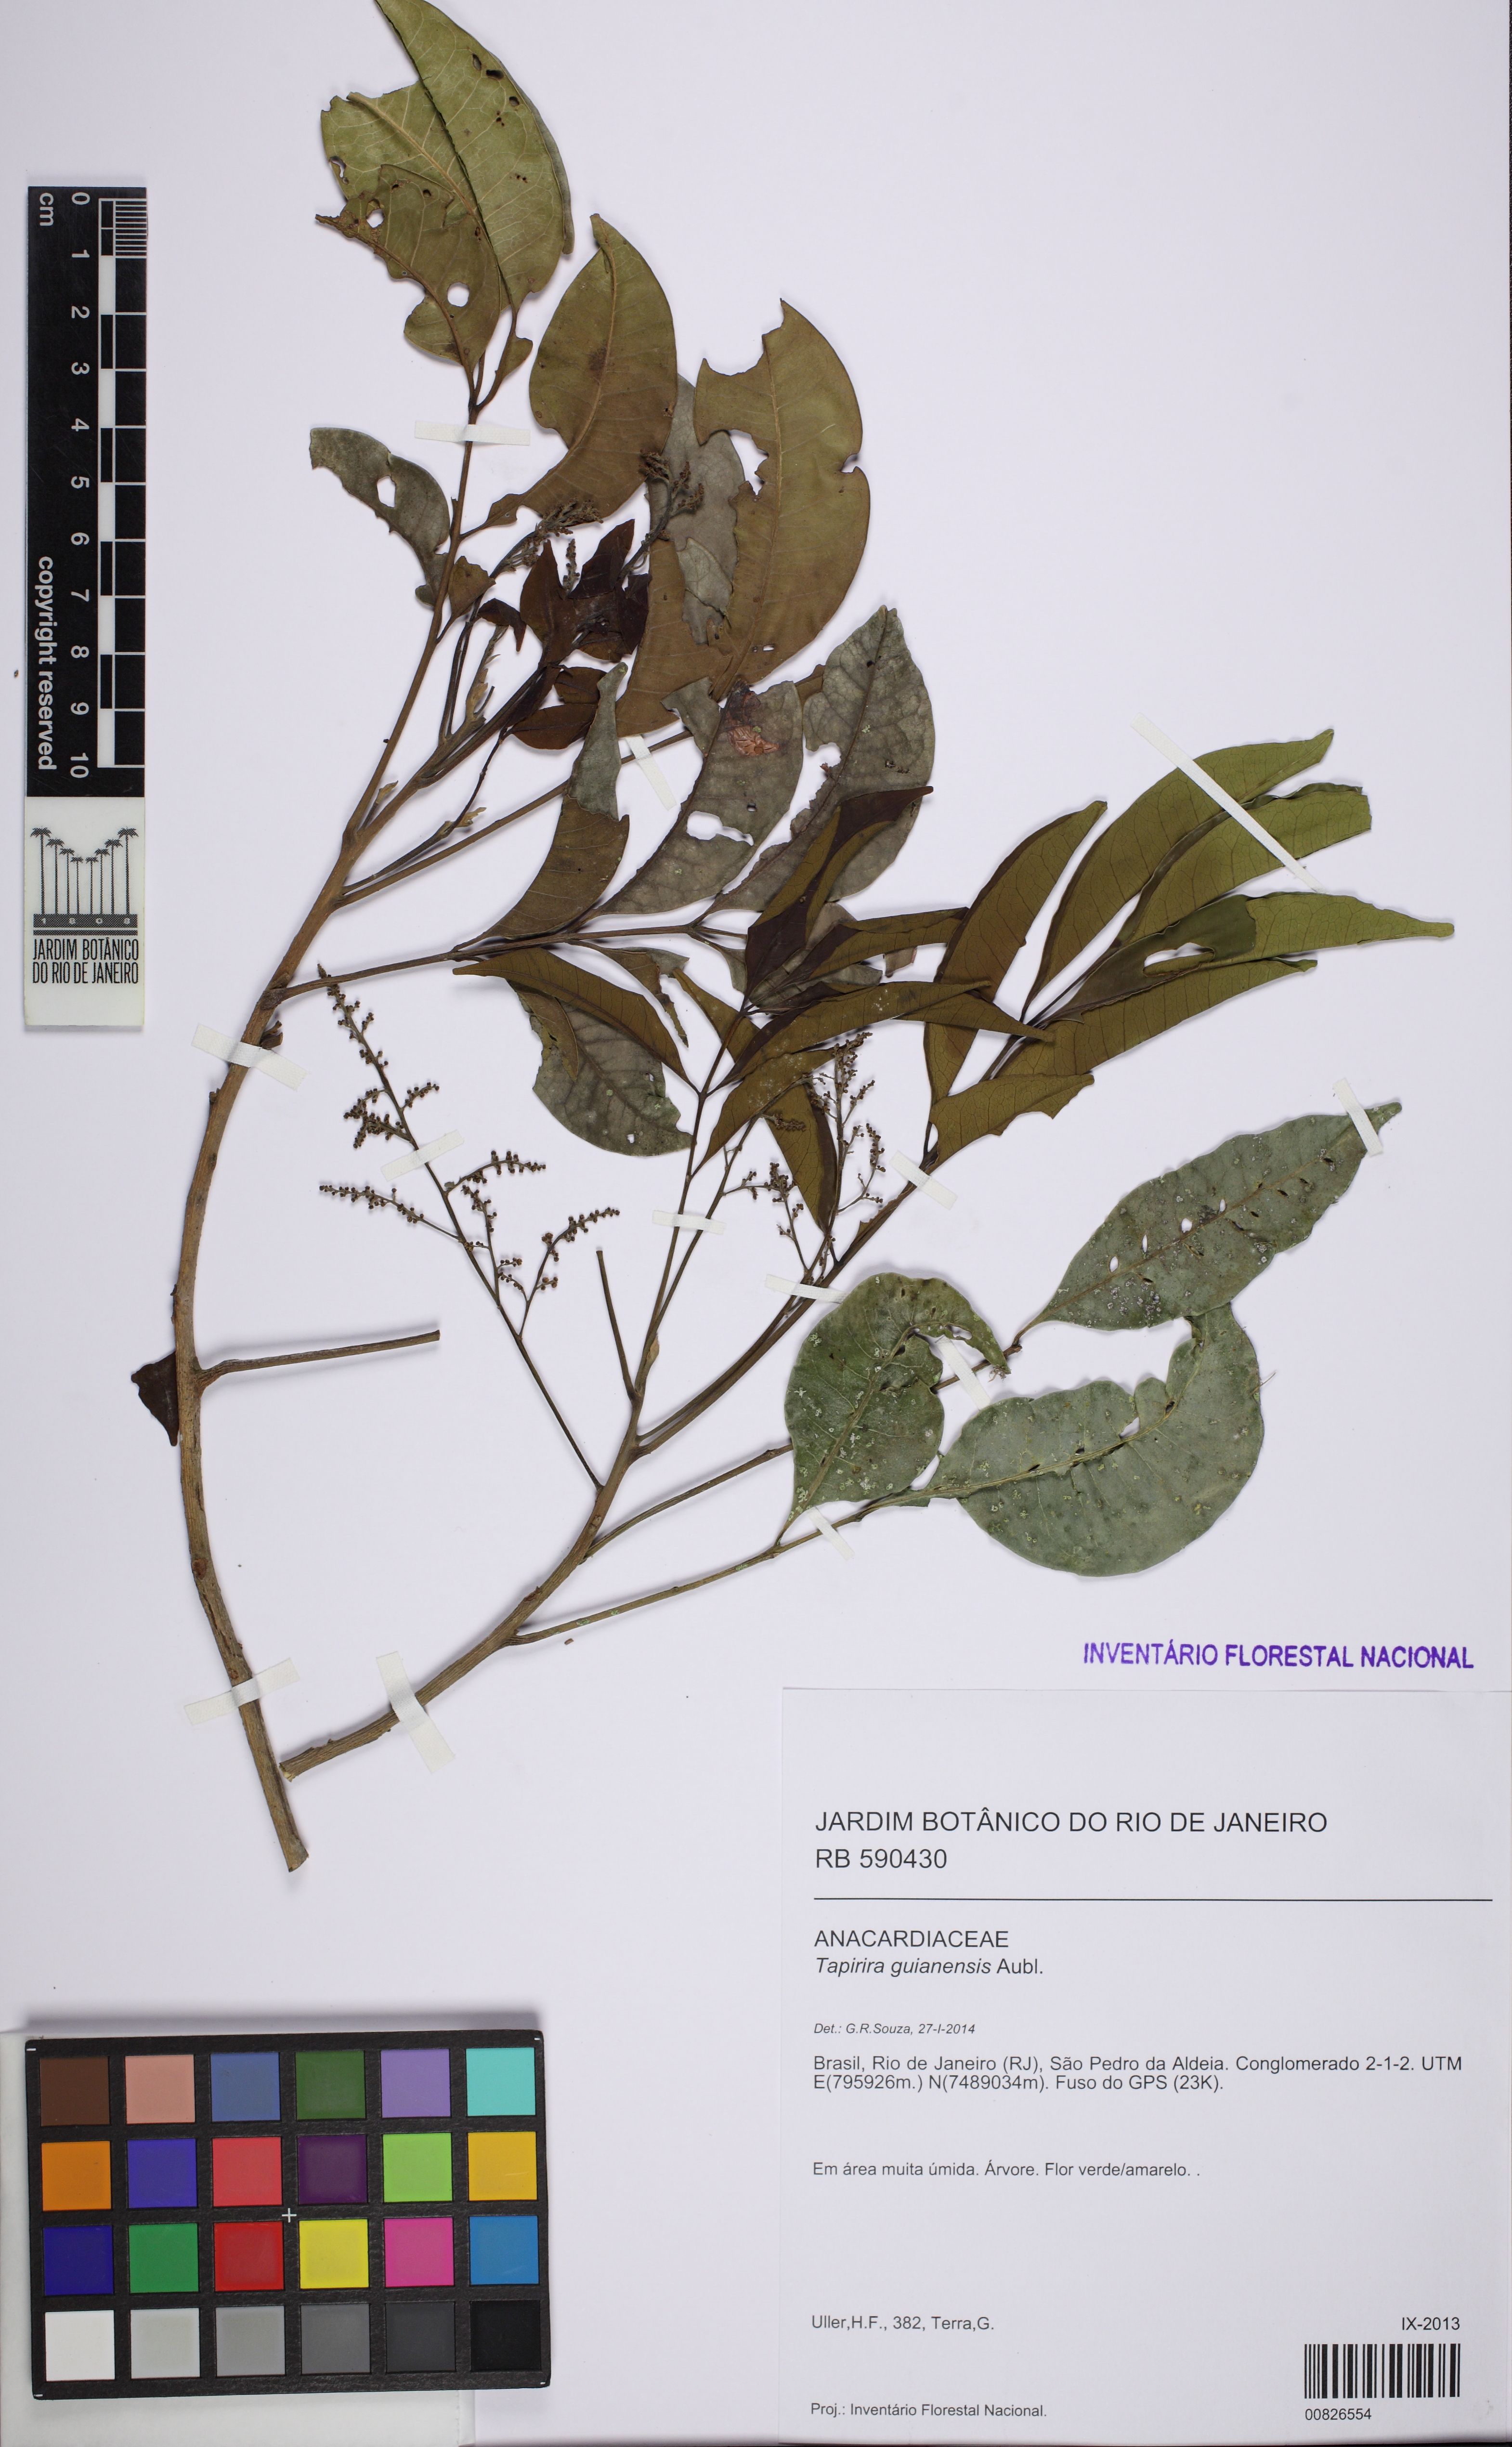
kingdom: Plantae
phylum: Tracheophyta
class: Magnoliopsida
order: Sapindales
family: Anacardiaceae
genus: Tapirira
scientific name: Tapirira guianensis
